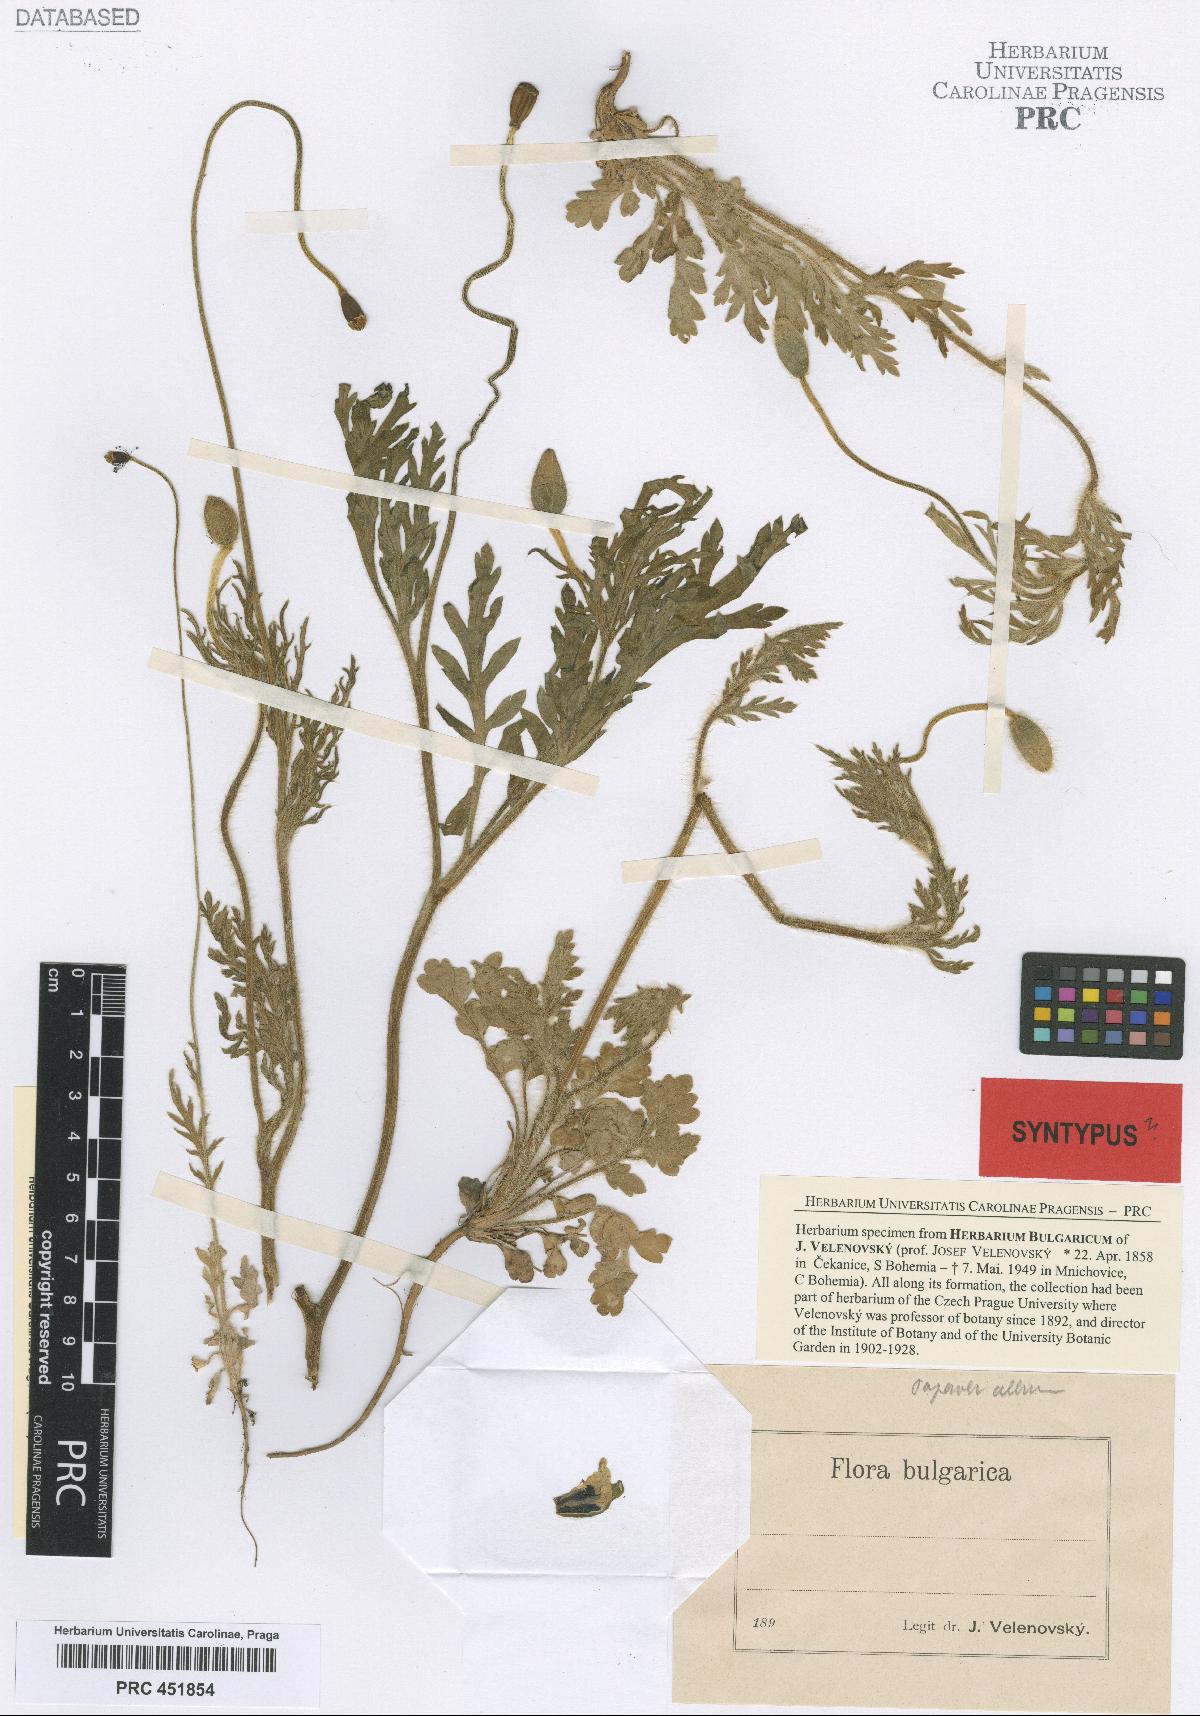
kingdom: Plantae
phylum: Tracheophyta
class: Magnoliopsida
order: Ranunculales
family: Papaveraceae
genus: Papaver
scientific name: Papaver dubium
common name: Long-headed poppy
